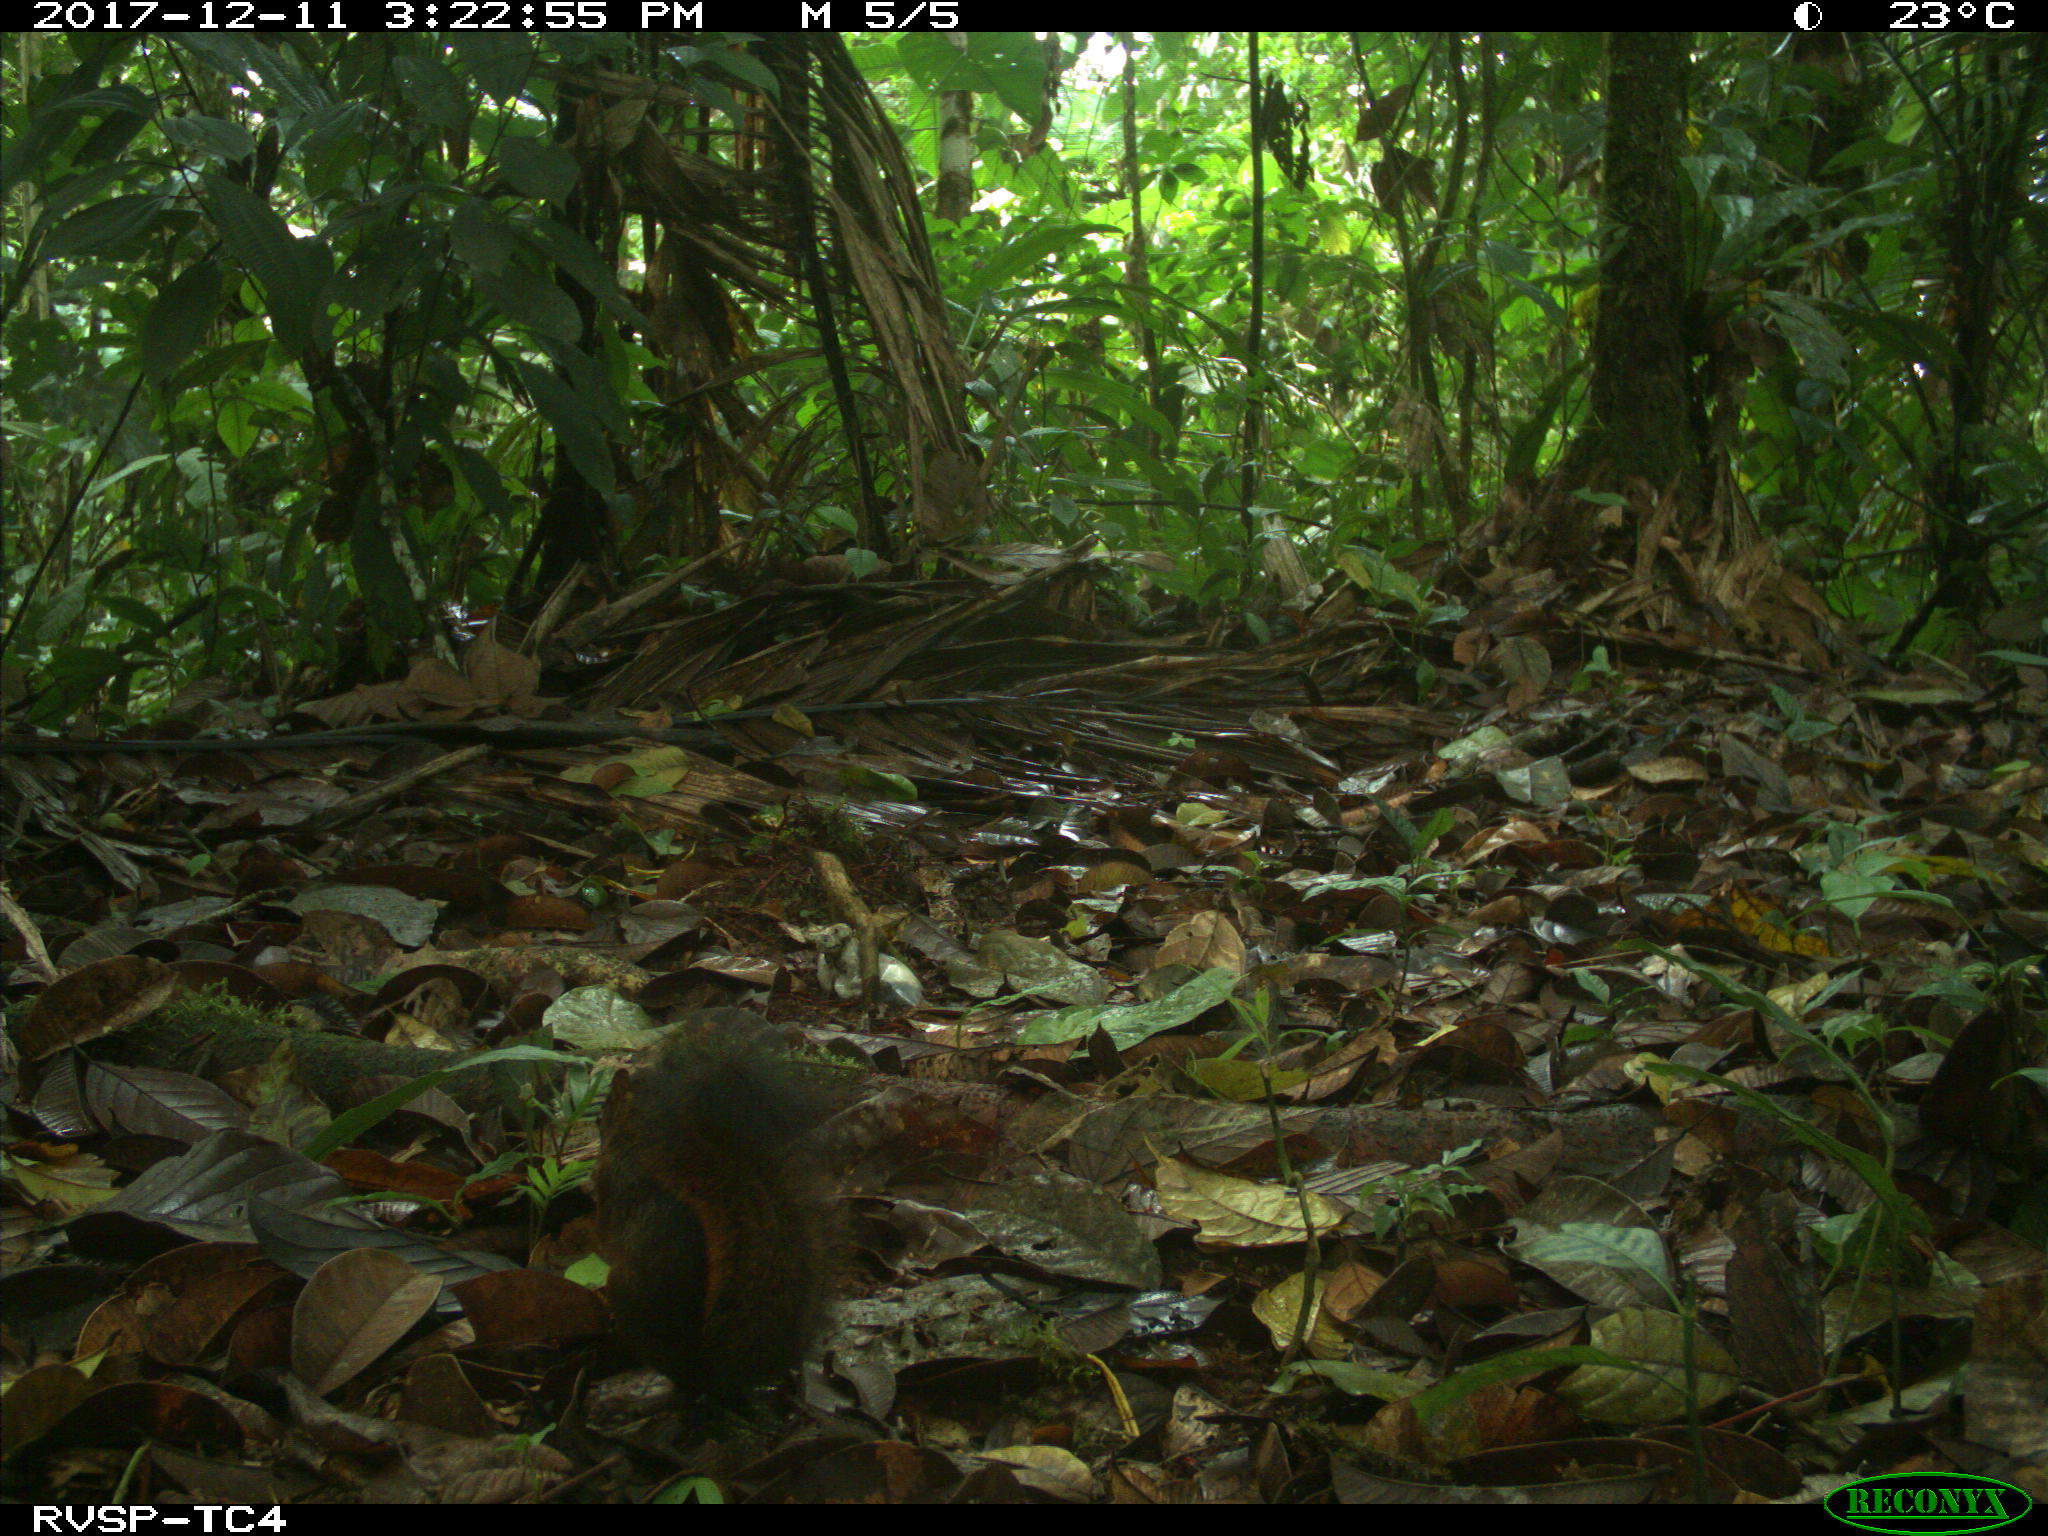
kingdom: Animalia
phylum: Chordata
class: Mammalia
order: Rodentia
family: Sciuridae
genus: Sciurus
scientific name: Sciurus granatensis
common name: Red-tailed squirrel
